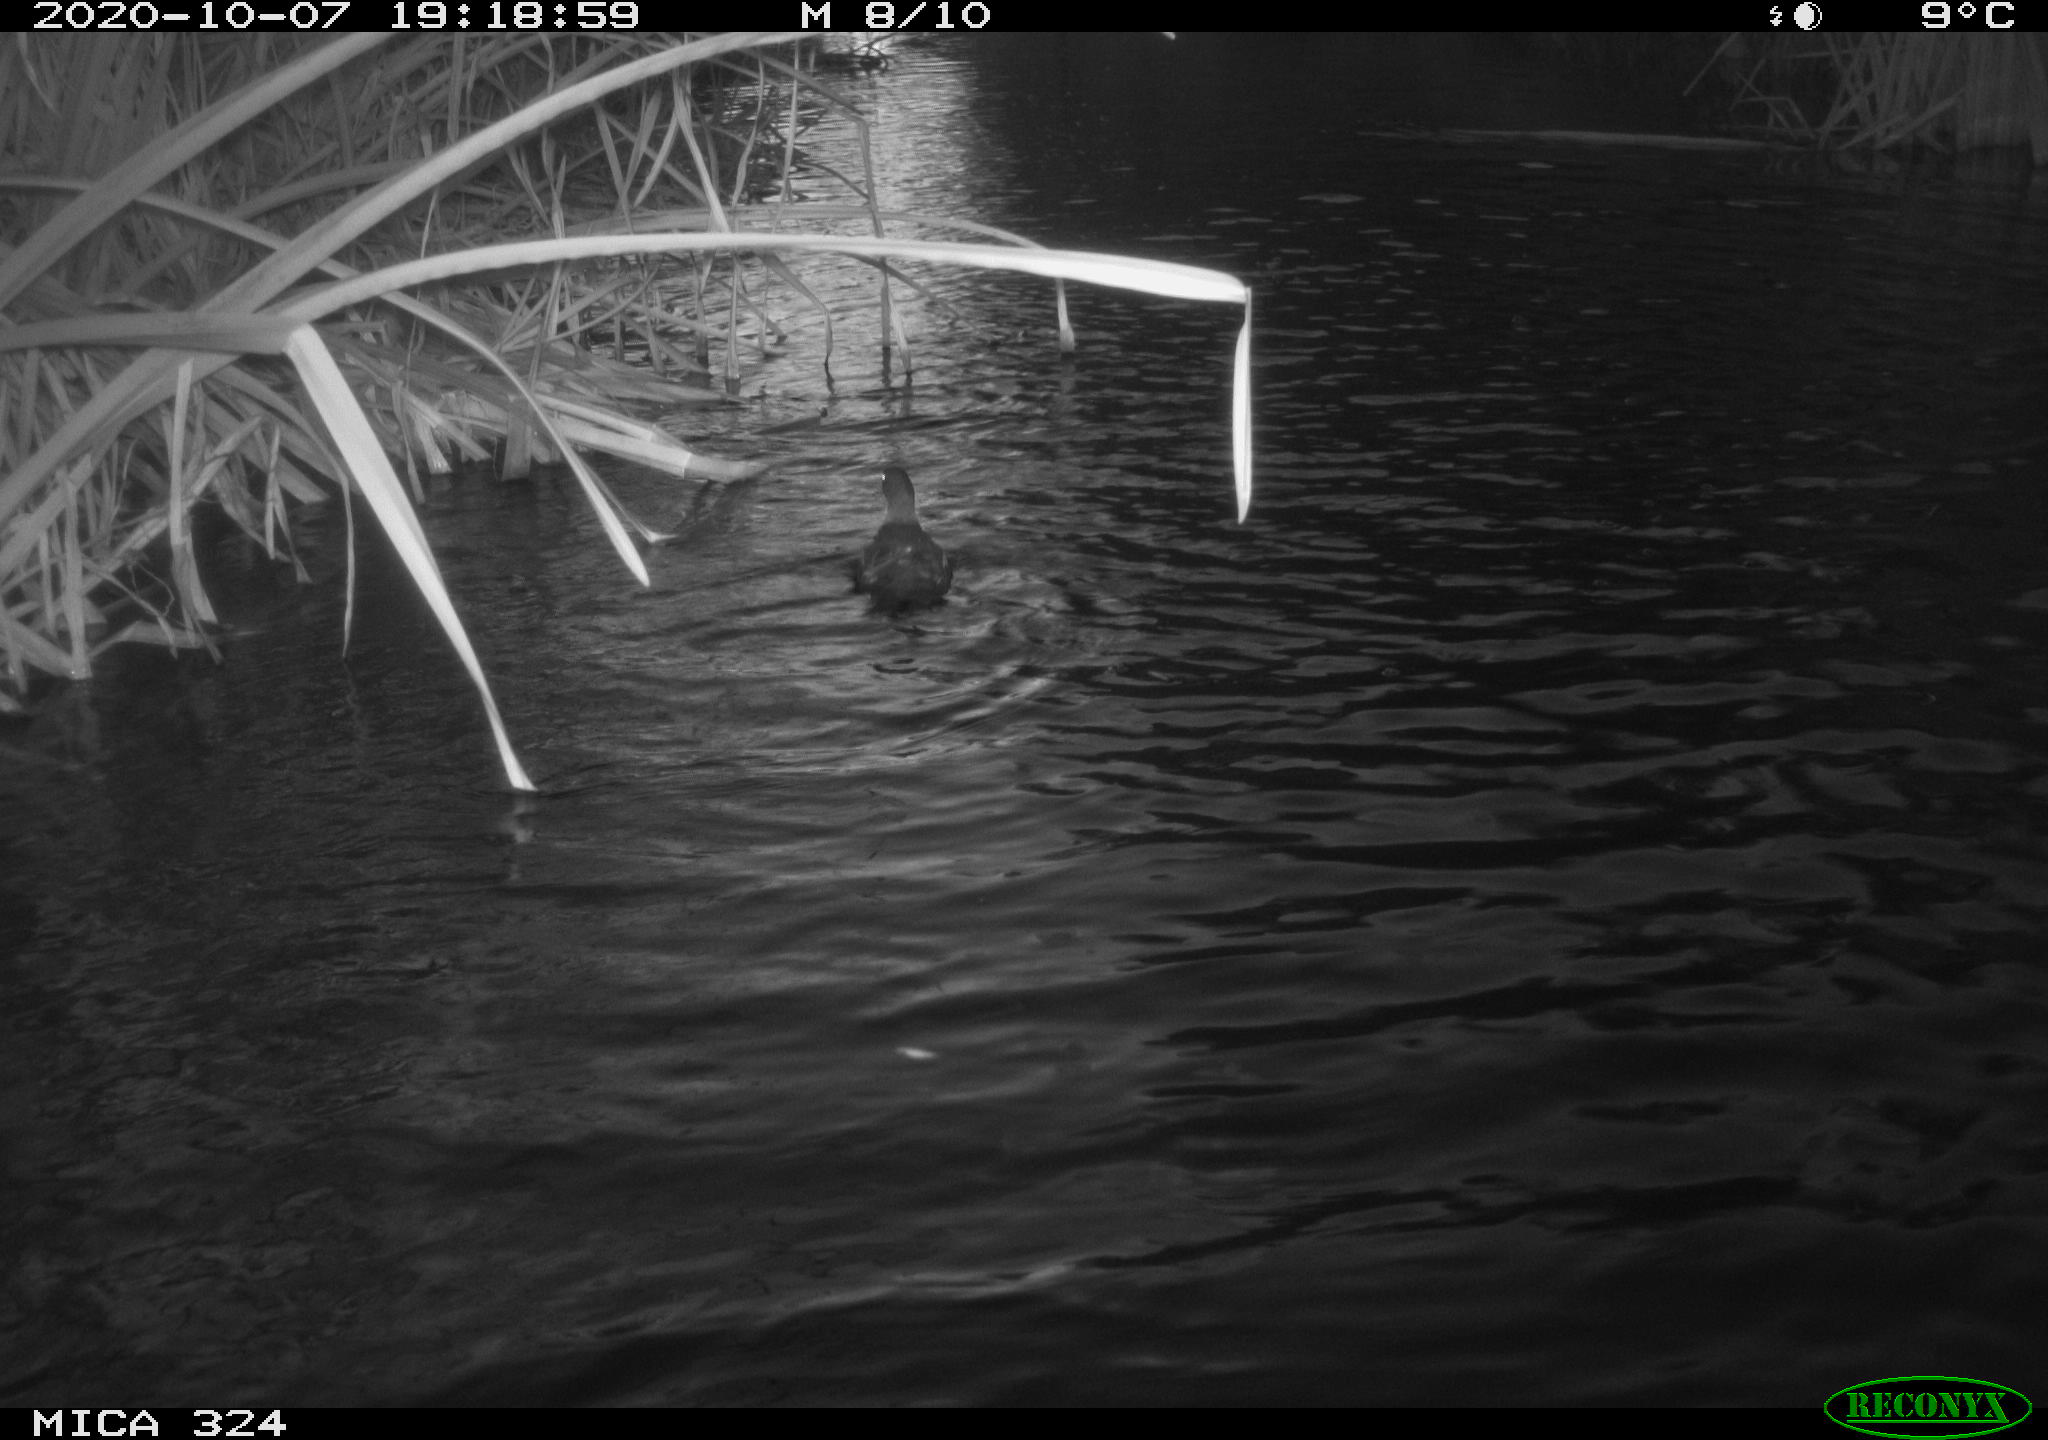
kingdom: Animalia
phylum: Chordata
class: Aves
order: Gruiformes
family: Rallidae
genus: Gallinula
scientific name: Gallinula chloropus
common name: Common moorhen
